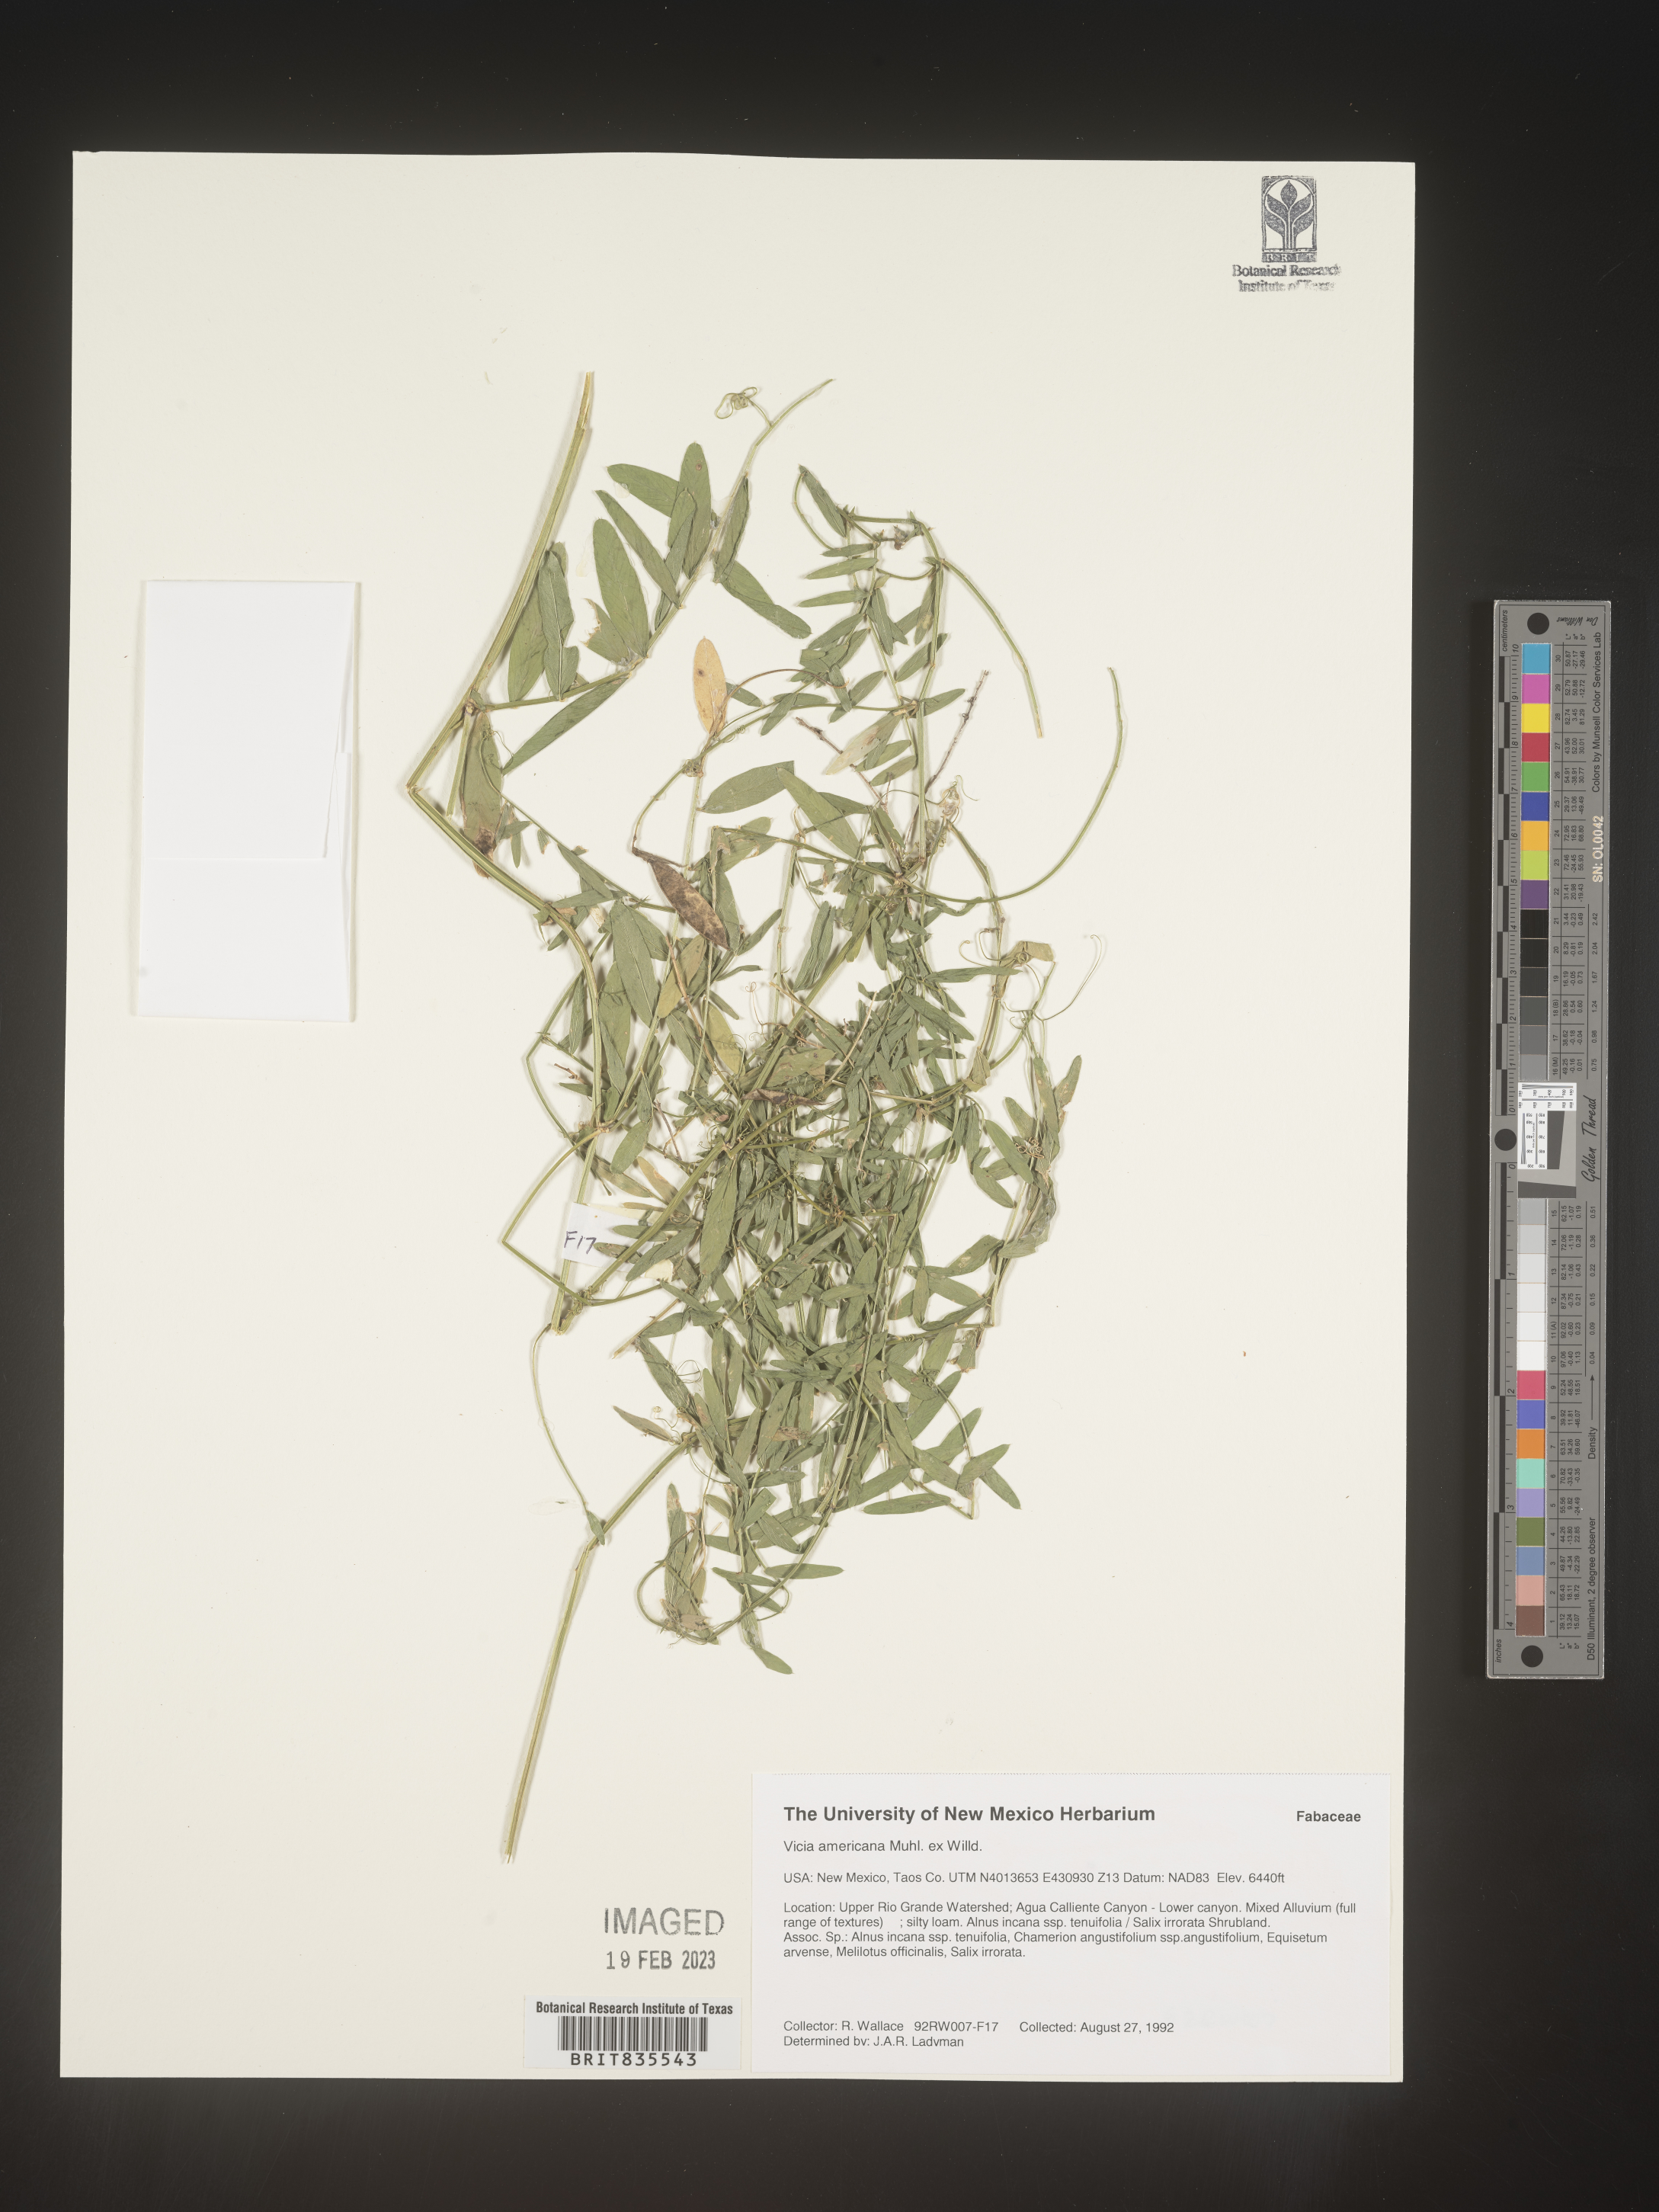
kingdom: Plantae
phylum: Tracheophyta
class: Magnoliopsida
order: Fabales
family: Fabaceae
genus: Vicia
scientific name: Vicia americana
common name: American vetch
